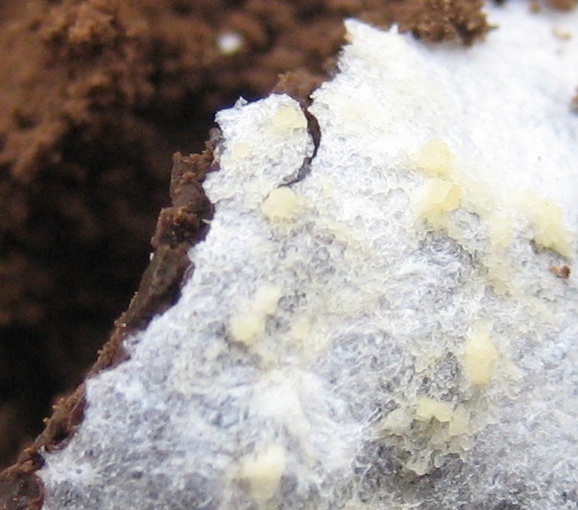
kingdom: Protozoa
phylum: Mycetozoa
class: Myxomycetes
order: Cribrariales
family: Tubiferaceae
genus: Reticularia
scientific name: Reticularia lycoperdon
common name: skinnende støvpude
